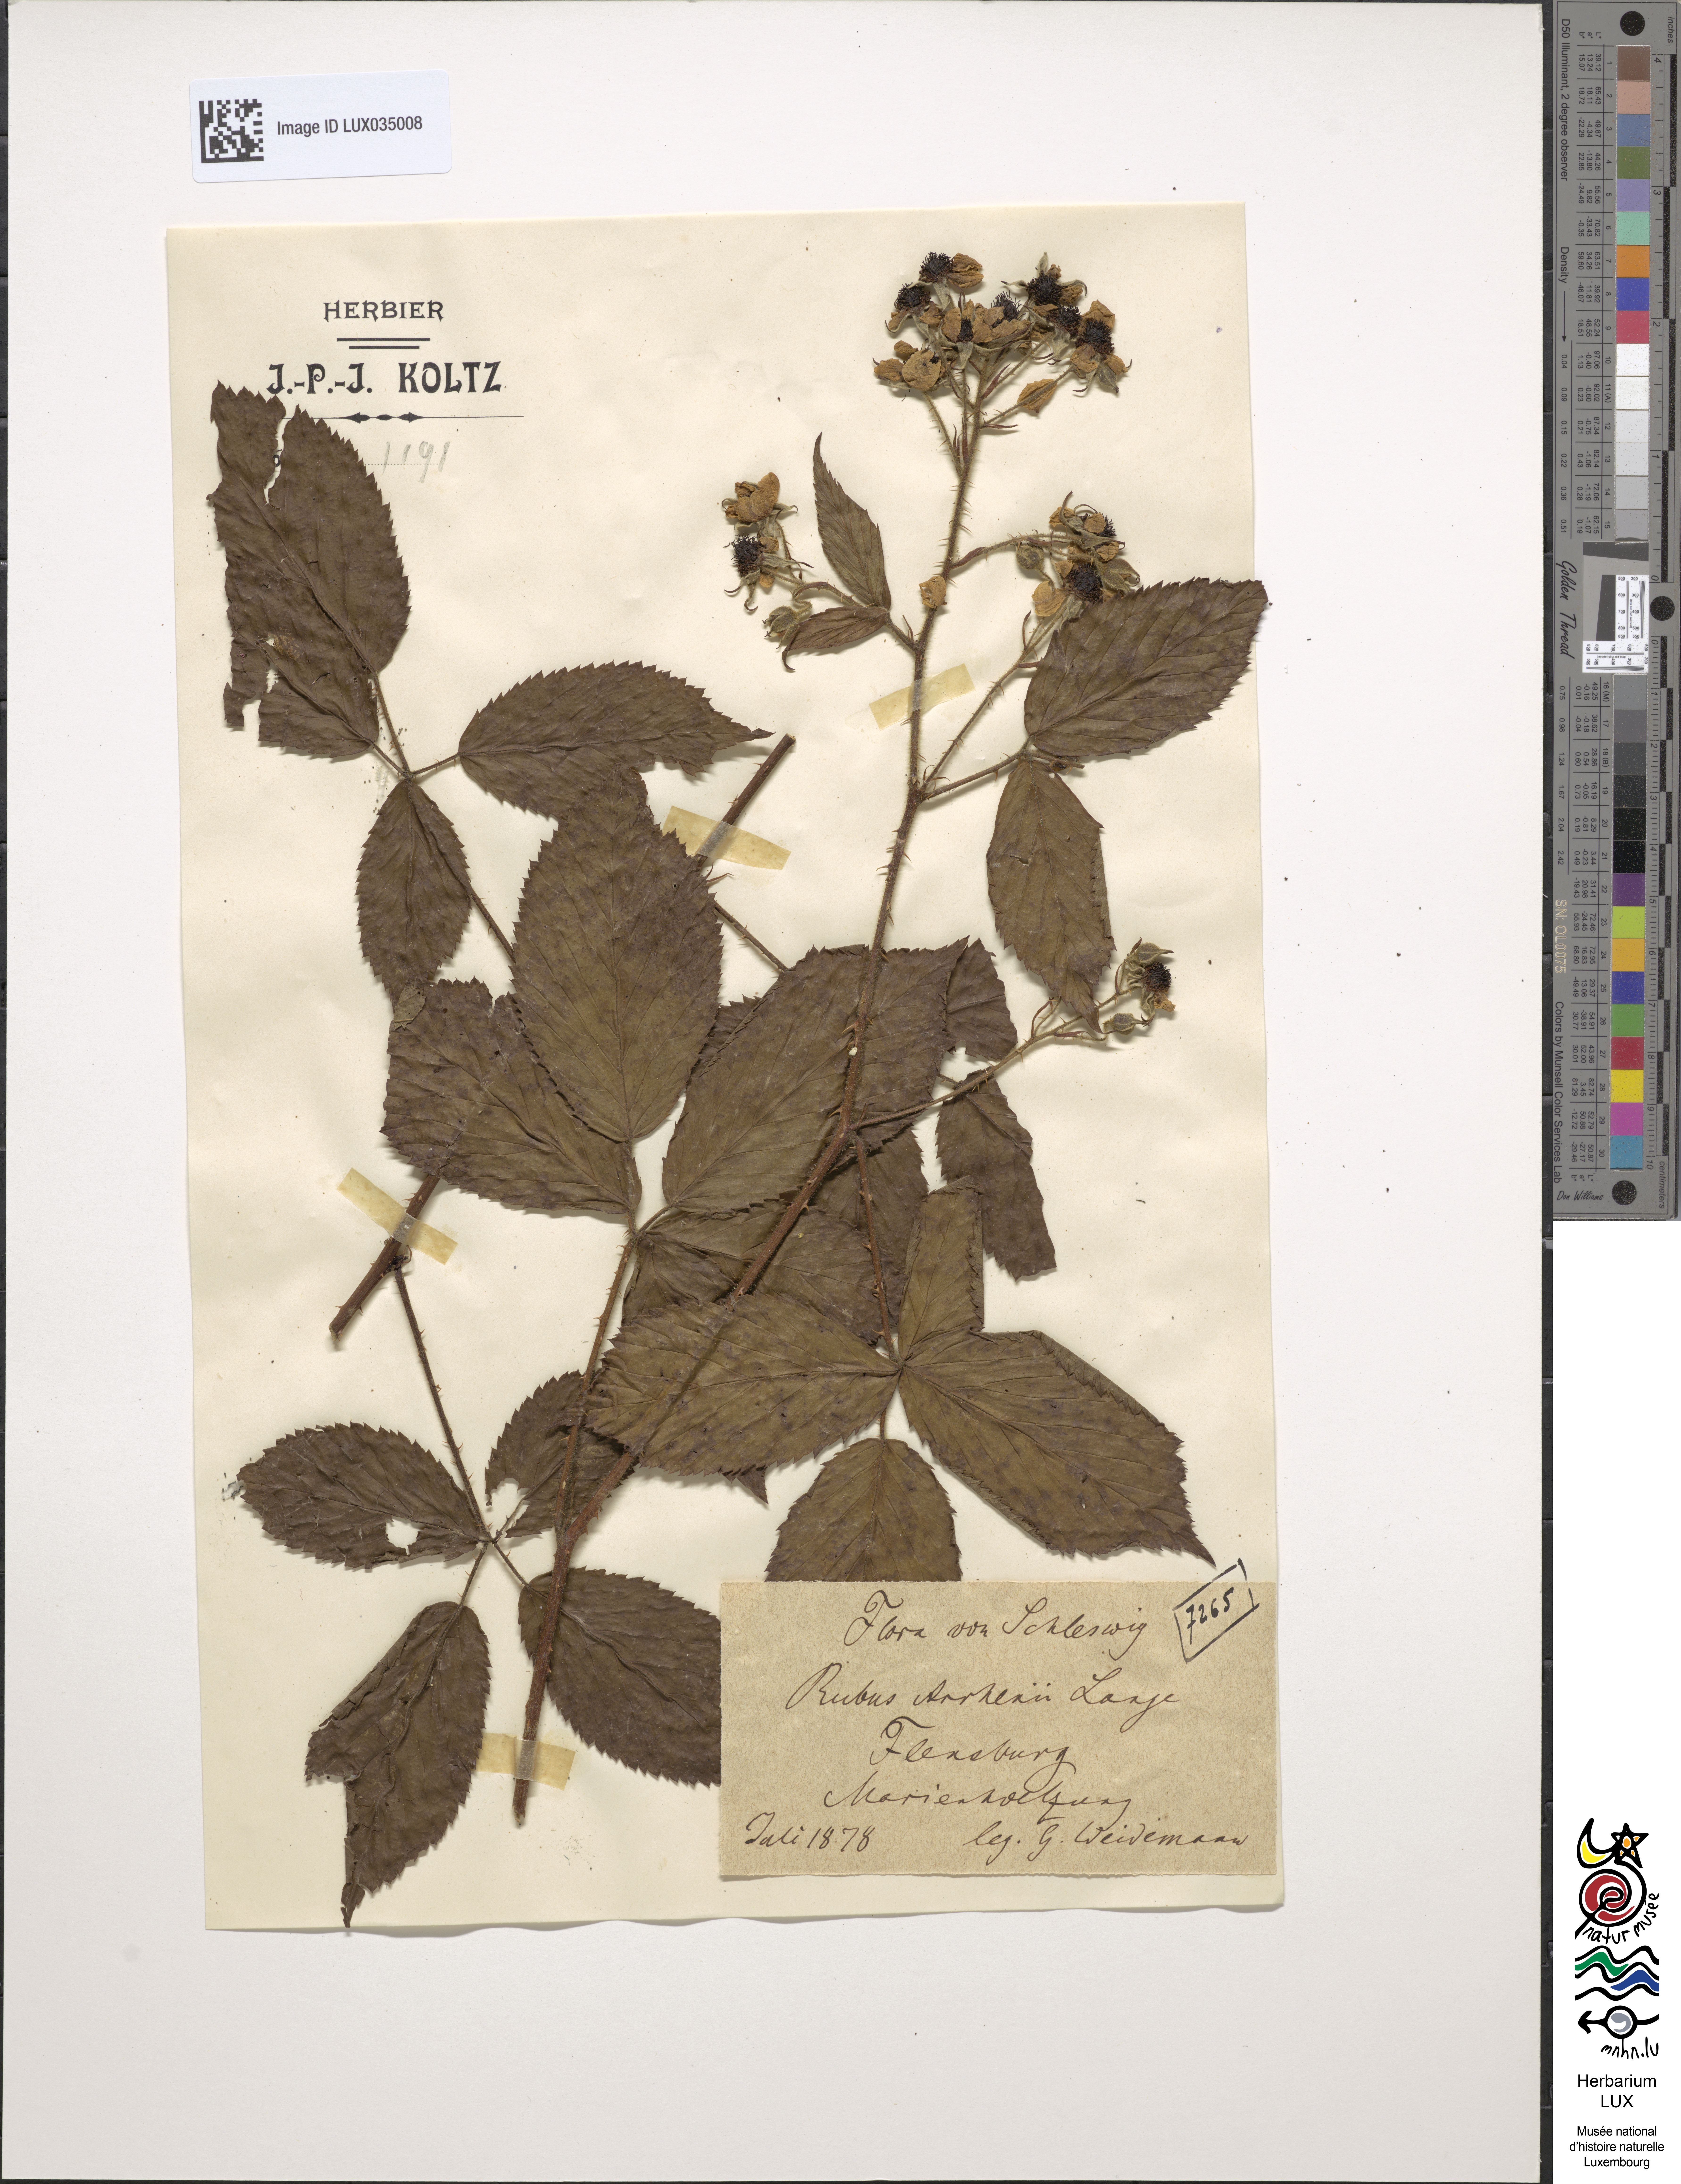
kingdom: Plantae
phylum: Tracheophyta
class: Magnoliopsida
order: Rosales
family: Rosaceae
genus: Rubus
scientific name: Rubus arrhenii
